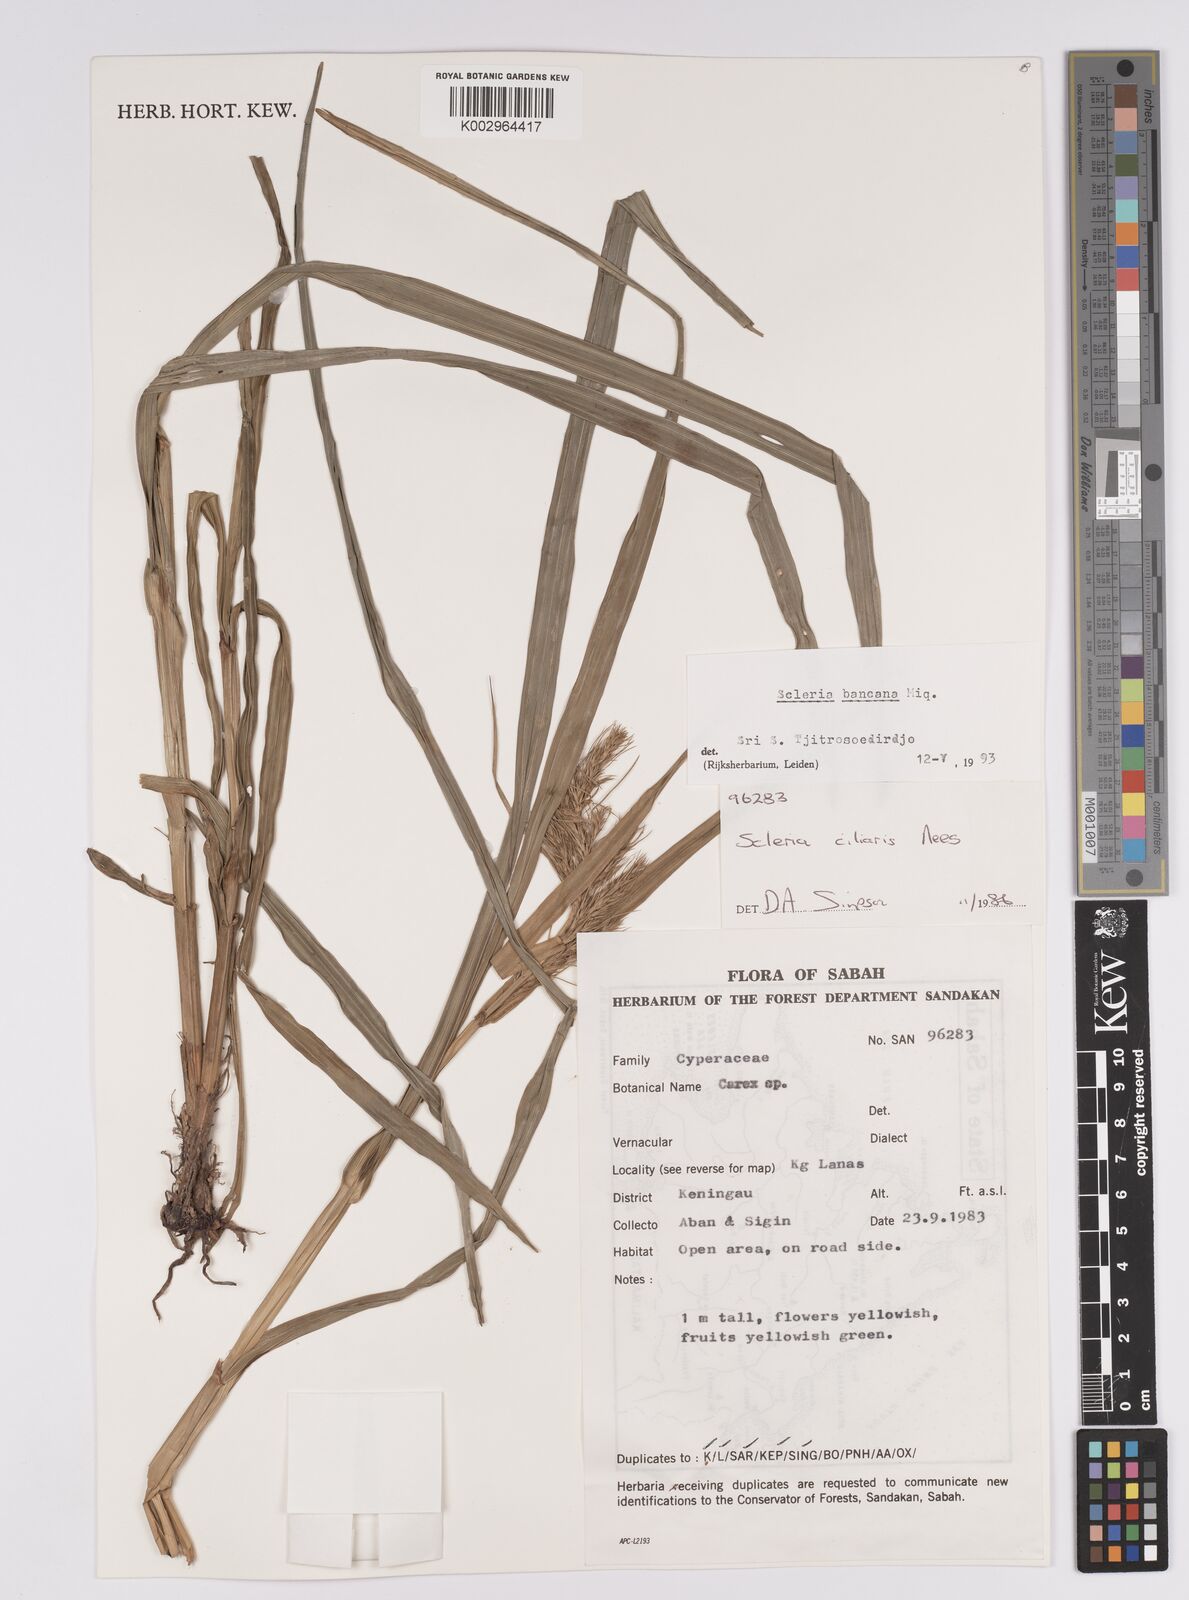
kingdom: Plantae
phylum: Tracheophyta
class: Liliopsida
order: Poales
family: Cyperaceae
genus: Scleria
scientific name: Scleria ciliaris
